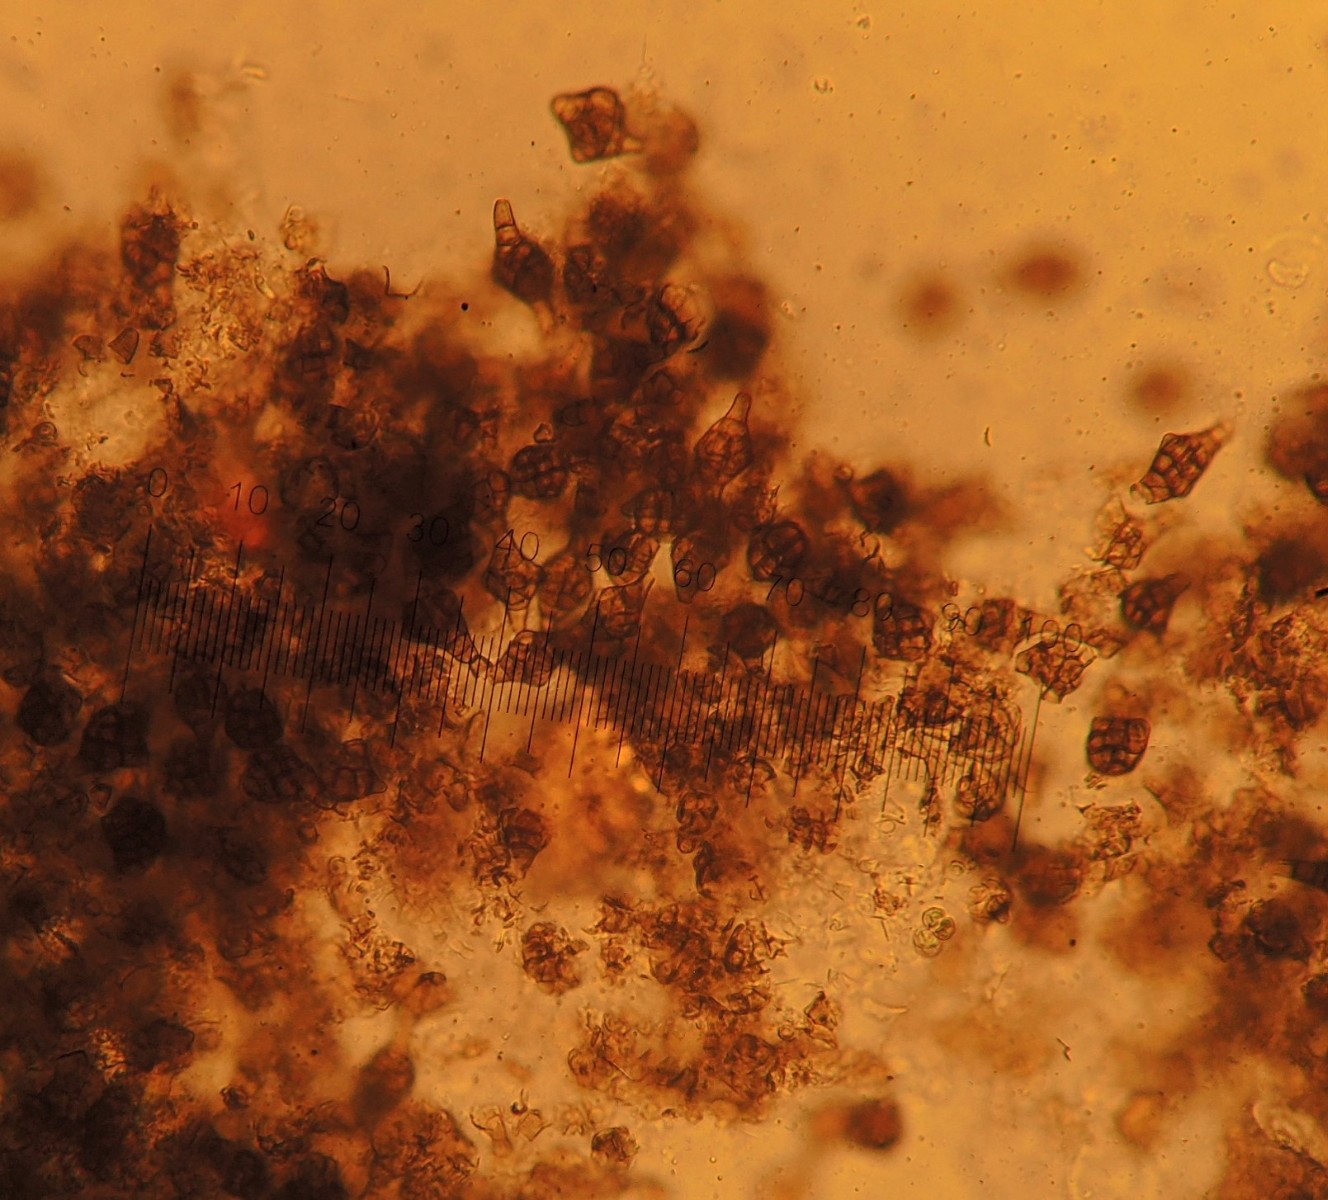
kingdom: Fungi
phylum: Ascomycota
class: Dothideomycetes
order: Pleosporales
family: Melanommataceae
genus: Phragmotrichum
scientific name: Phragmotrichum chailletii
